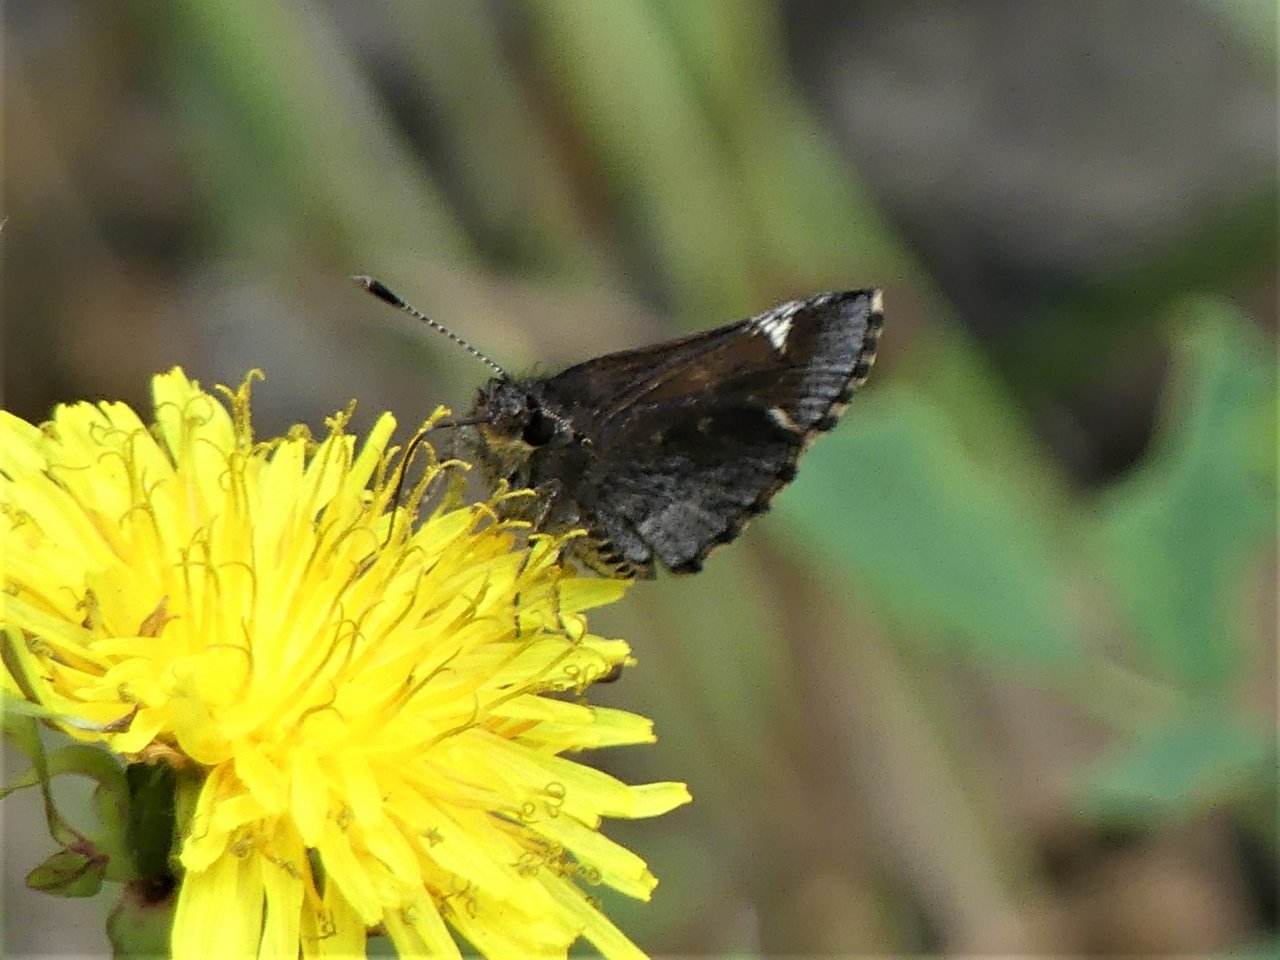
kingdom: Animalia
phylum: Arthropoda
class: Insecta
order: Lepidoptera
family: Hesperiidae
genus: Mastor
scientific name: Mastor vialis
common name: Common Roadside-Skipper
